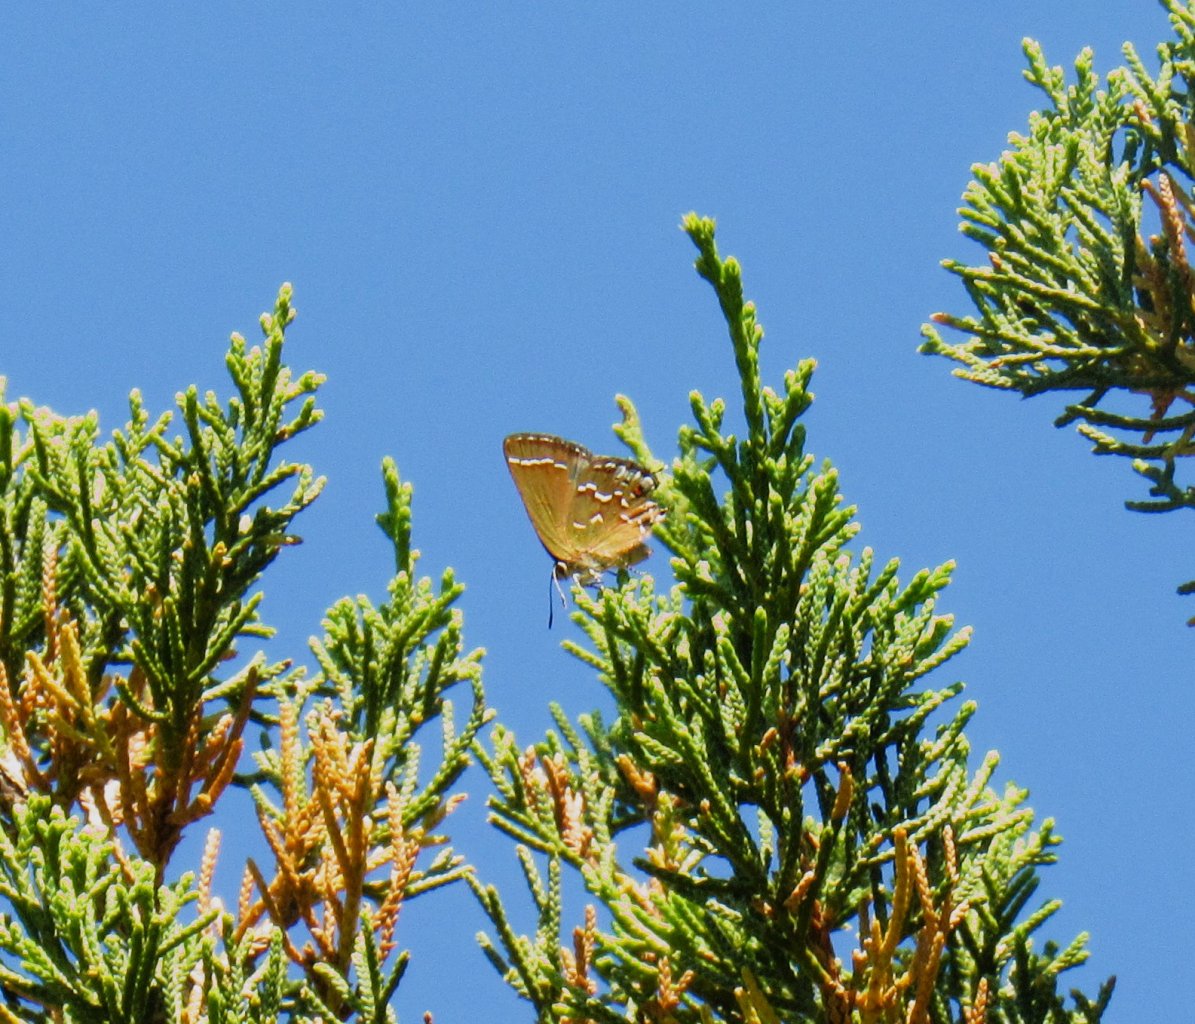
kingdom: Animalia
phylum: Arthropoda
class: Insecta
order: Lepidoptera
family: Lycaenidae
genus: Mitoura
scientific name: Mitoura gryneus
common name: Juniper Hairstreak
